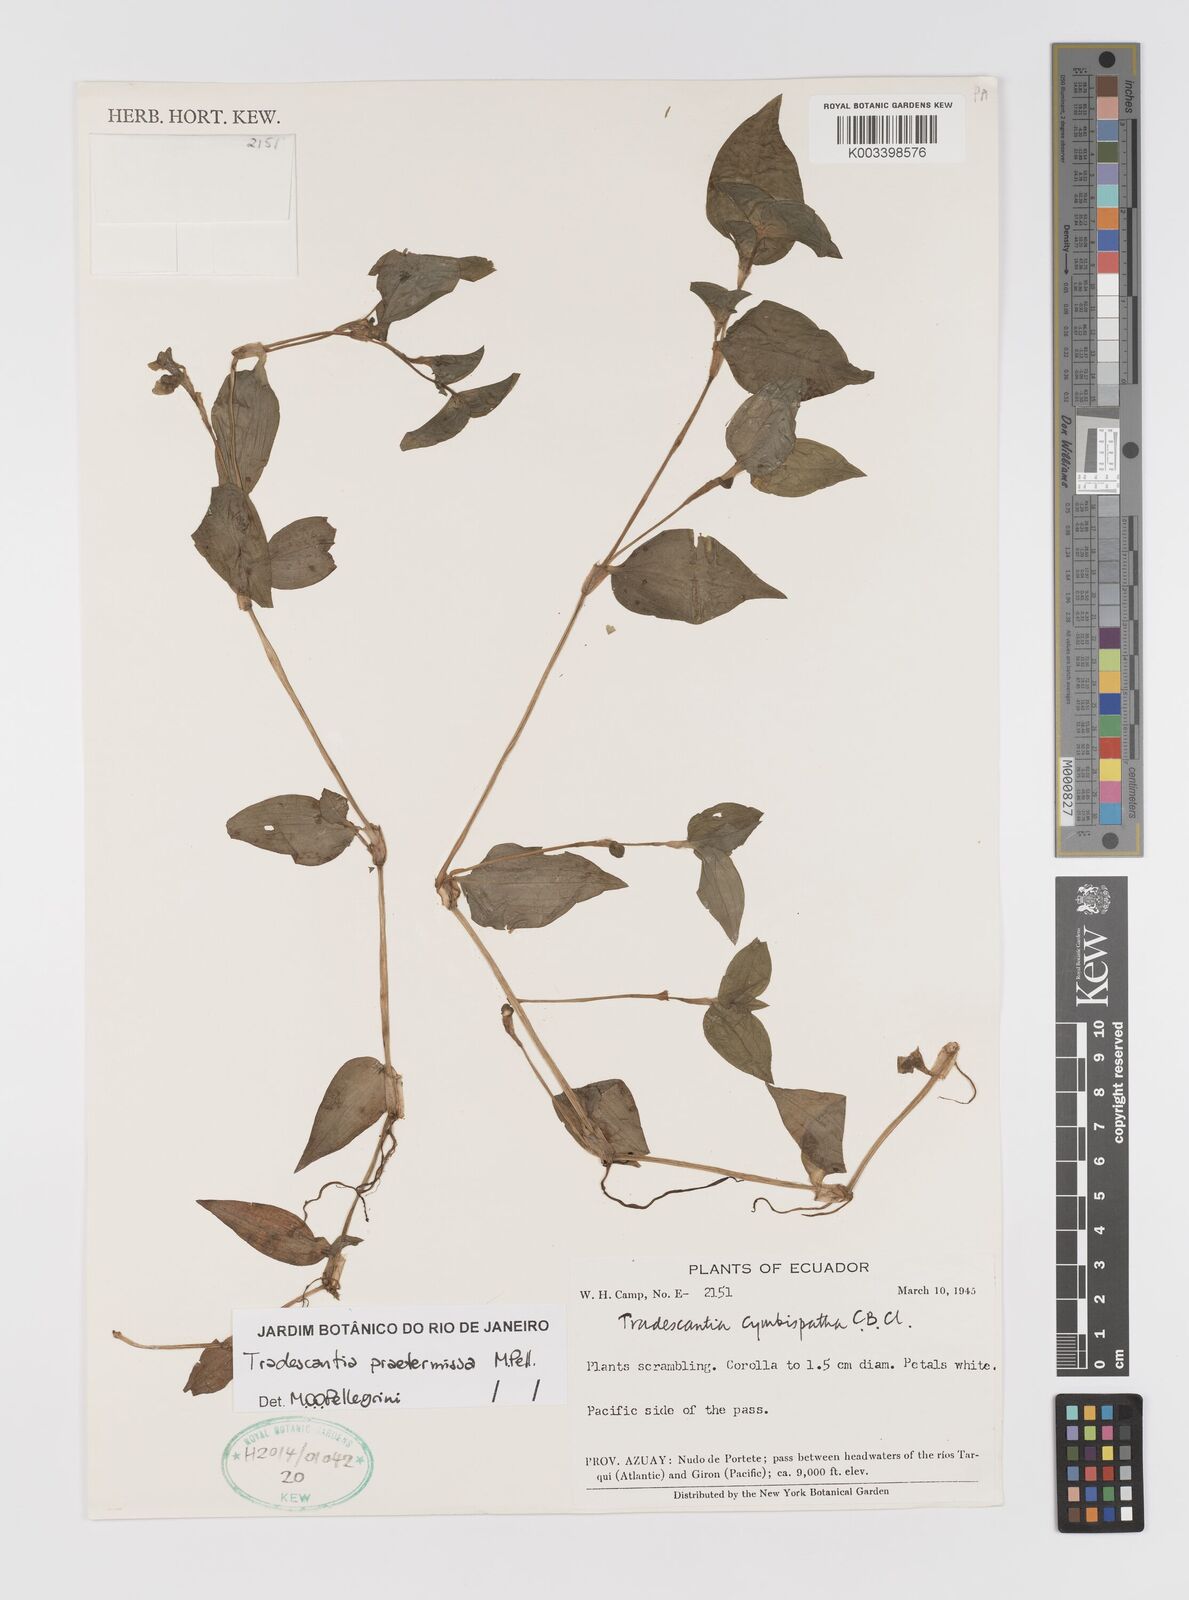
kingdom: Plantae
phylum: Tracheophyta
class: Liliopsida
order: Commelinales
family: Commelinaceae
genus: Tradescantia
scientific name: Tradescantia praetermissa
